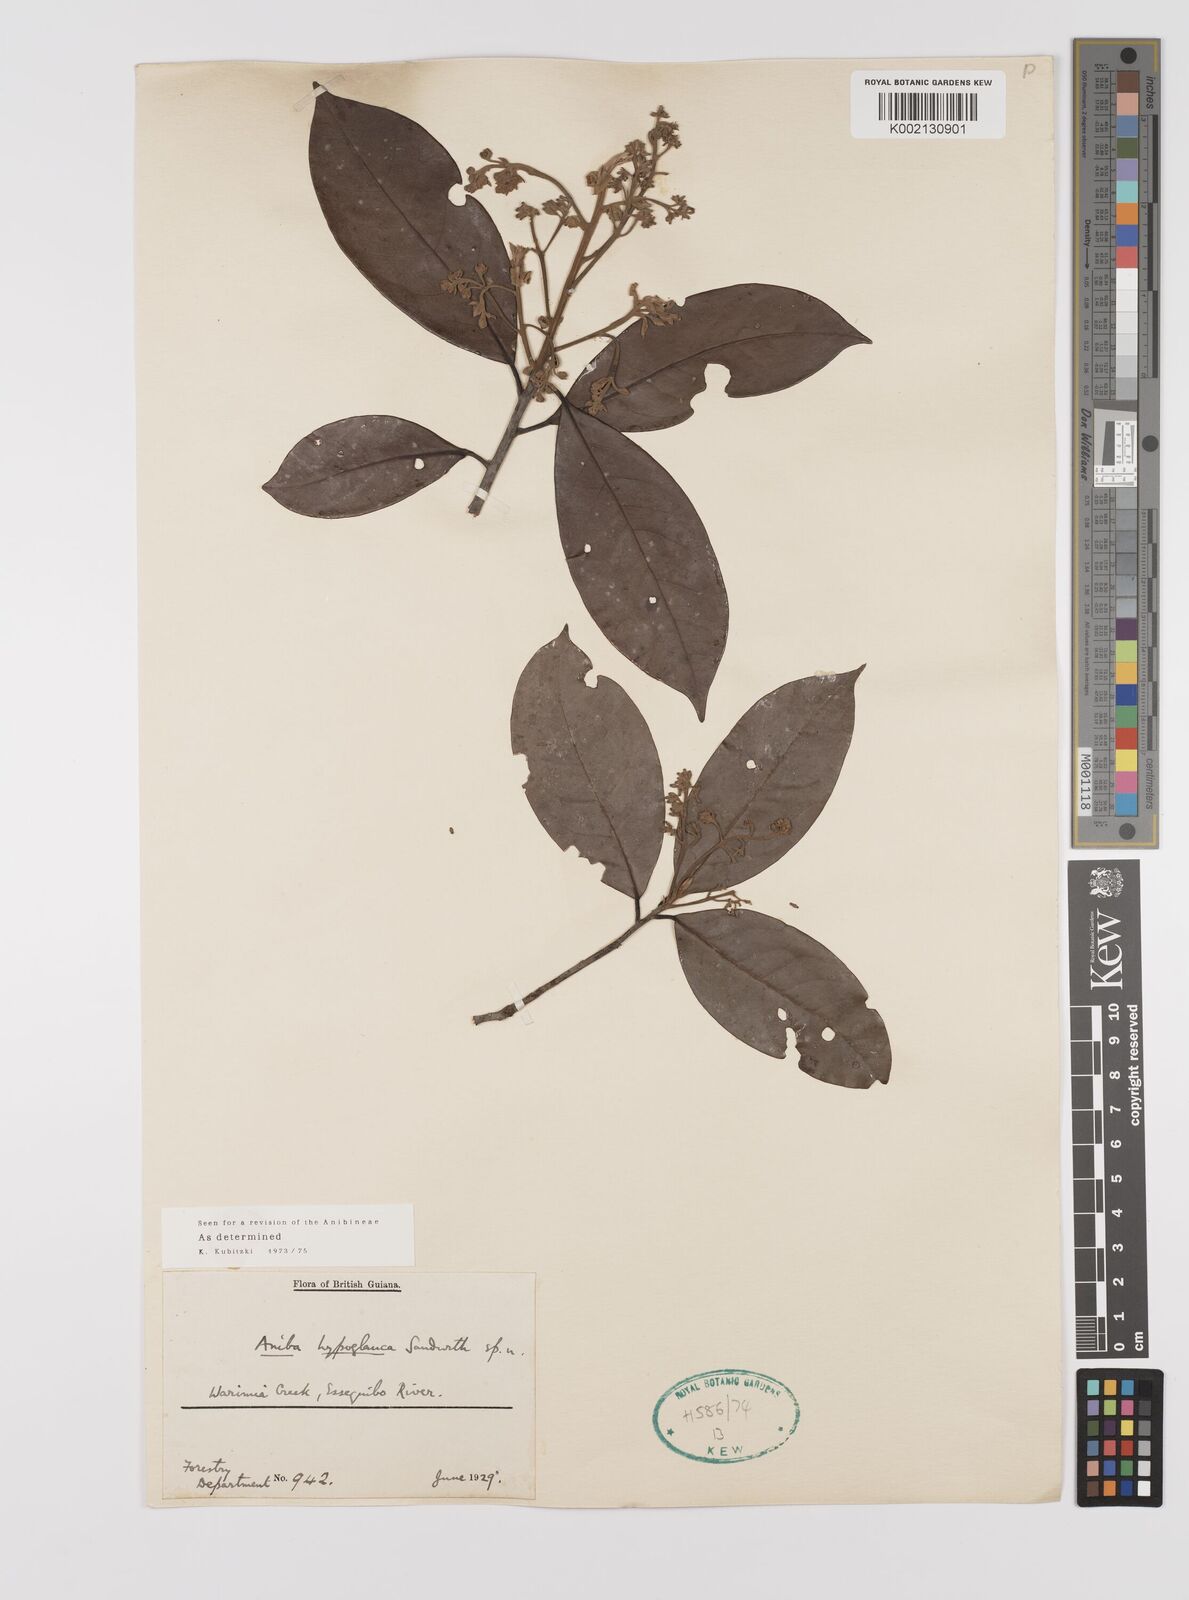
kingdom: Plantae
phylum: Tracheophyta
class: Magnoliopsida
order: Laurales
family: Lauraceae
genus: Aniba
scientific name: Aniba hypoglauca
